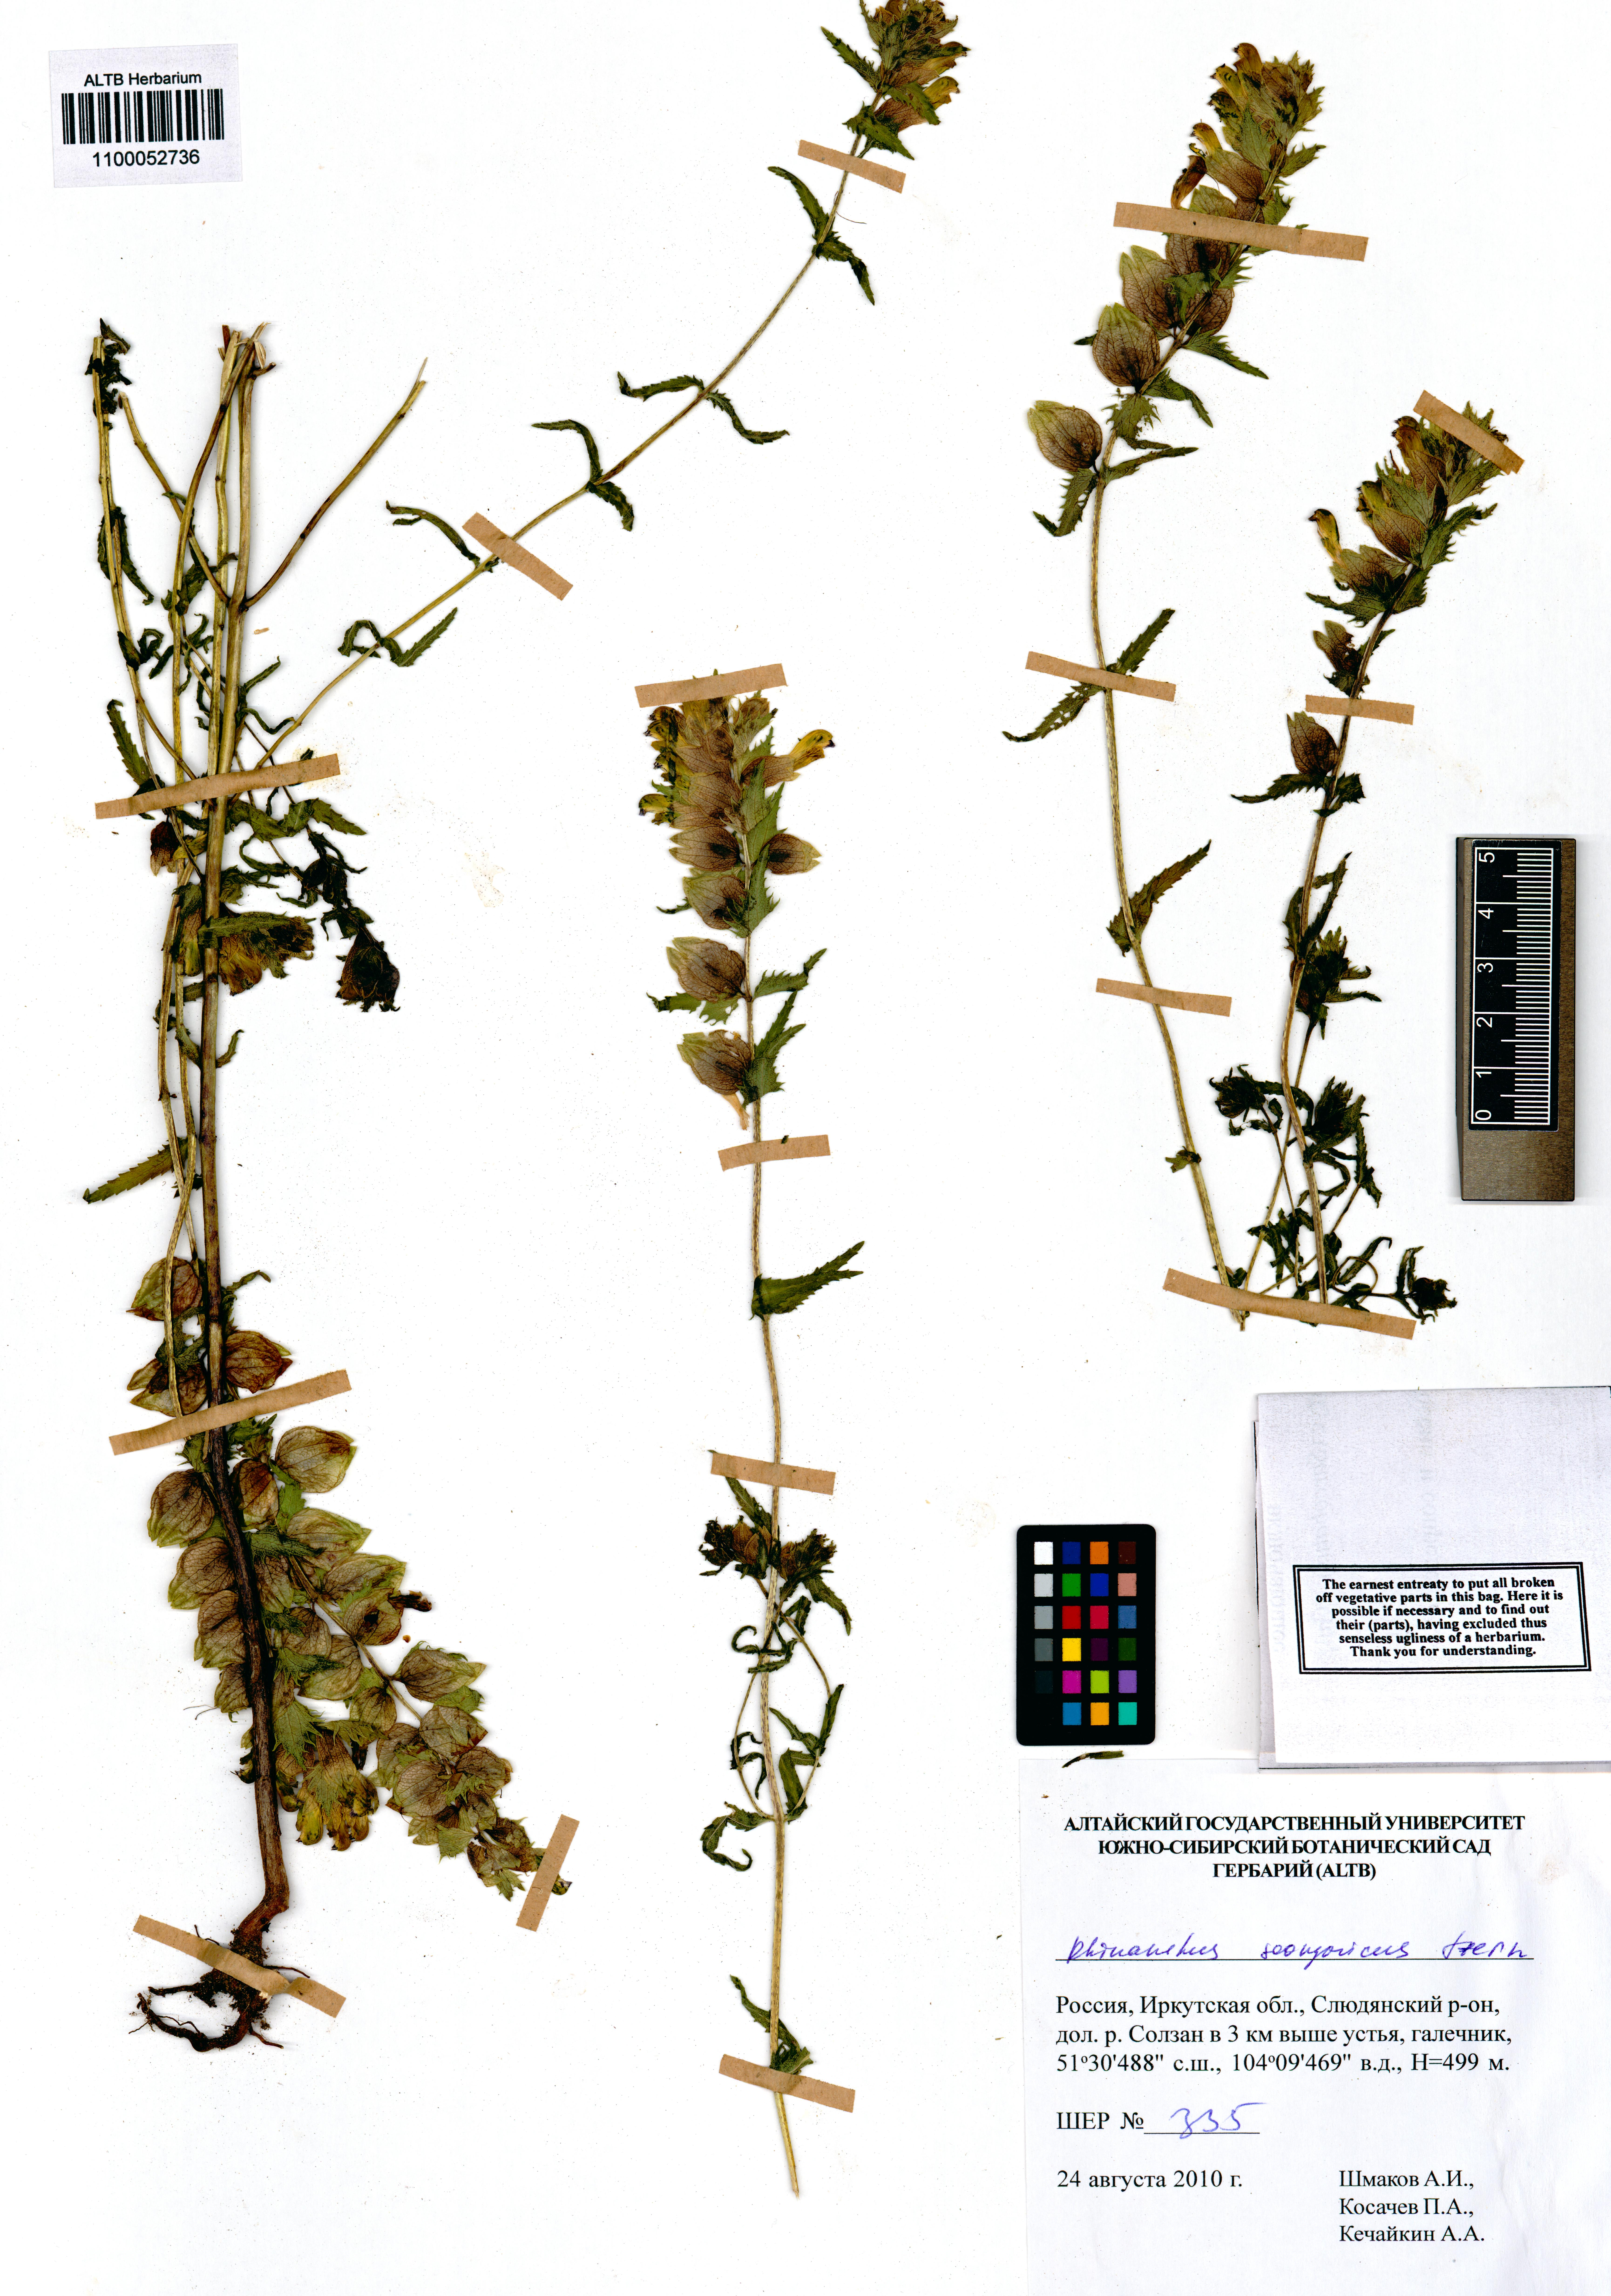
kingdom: Plantae
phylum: Tracheophyta
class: Magnoliopsida
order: Lamiales
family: Orobanchaceae
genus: Rhinanthus
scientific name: Rhinanthus songaricus
